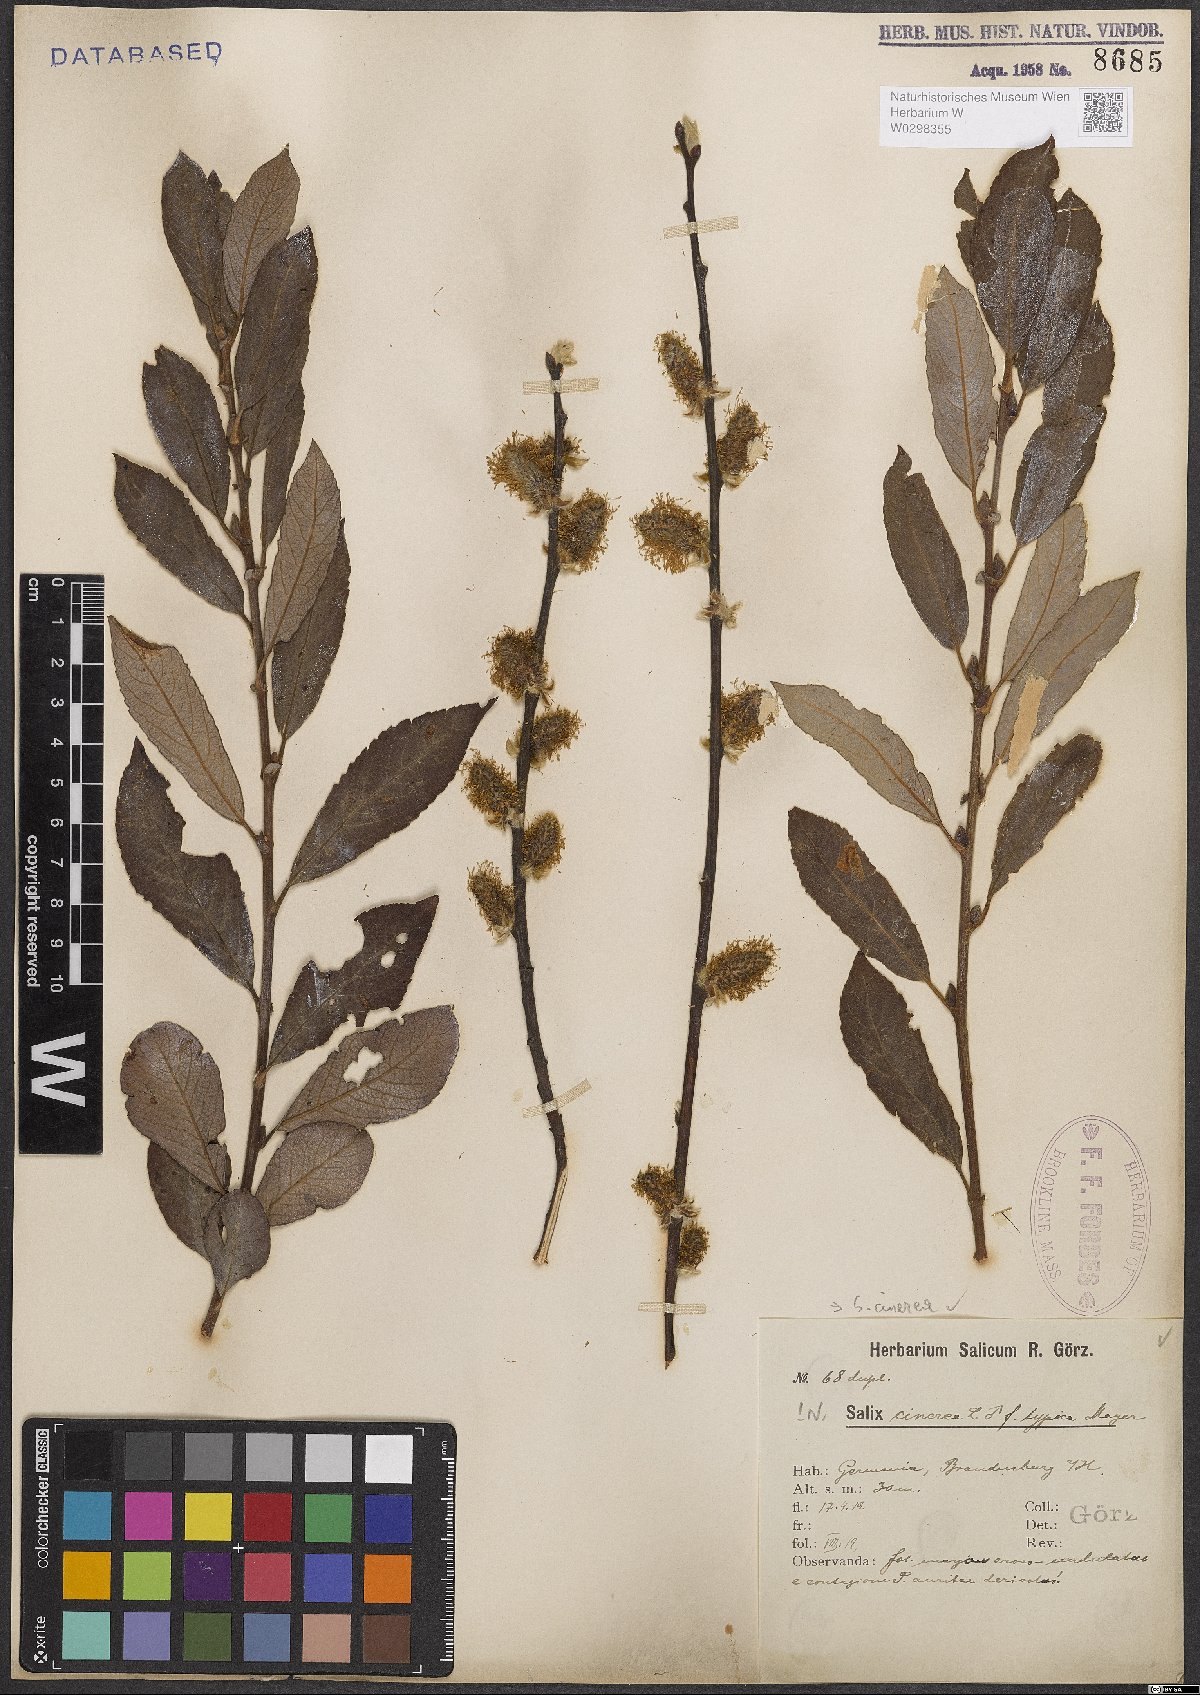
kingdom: Plantae
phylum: Tracheophyta
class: Magnoliopsida
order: Malpighiales
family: Salicaceae
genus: Salix
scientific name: Salix cinerea
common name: Common sallow
